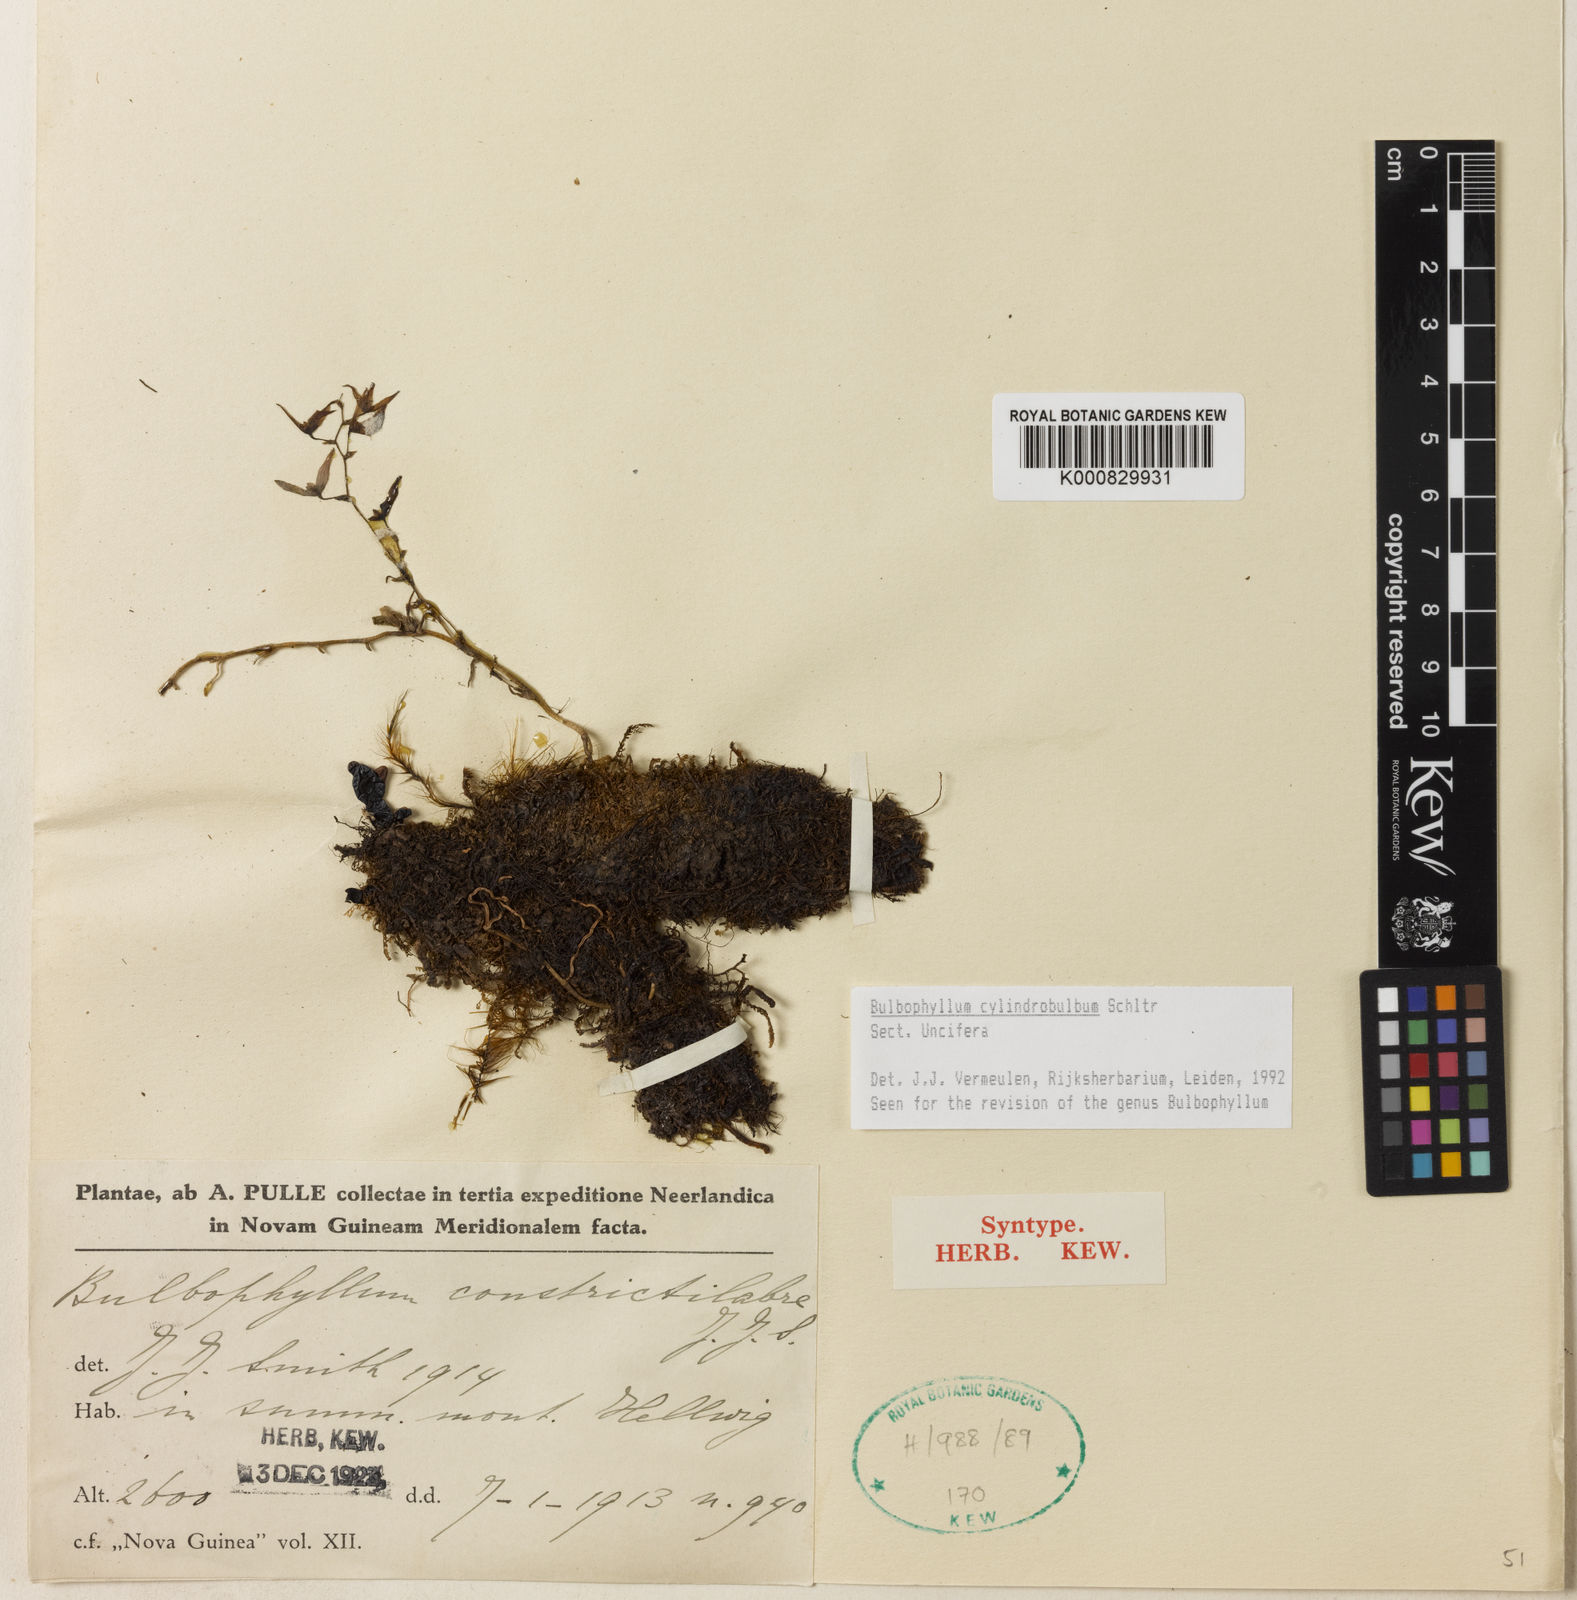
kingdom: Plantae
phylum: Tracheophyta
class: Liliopsida
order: Asparagales
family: Orchidaceae
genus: Bulbophyllum
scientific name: Bulbophyllum
